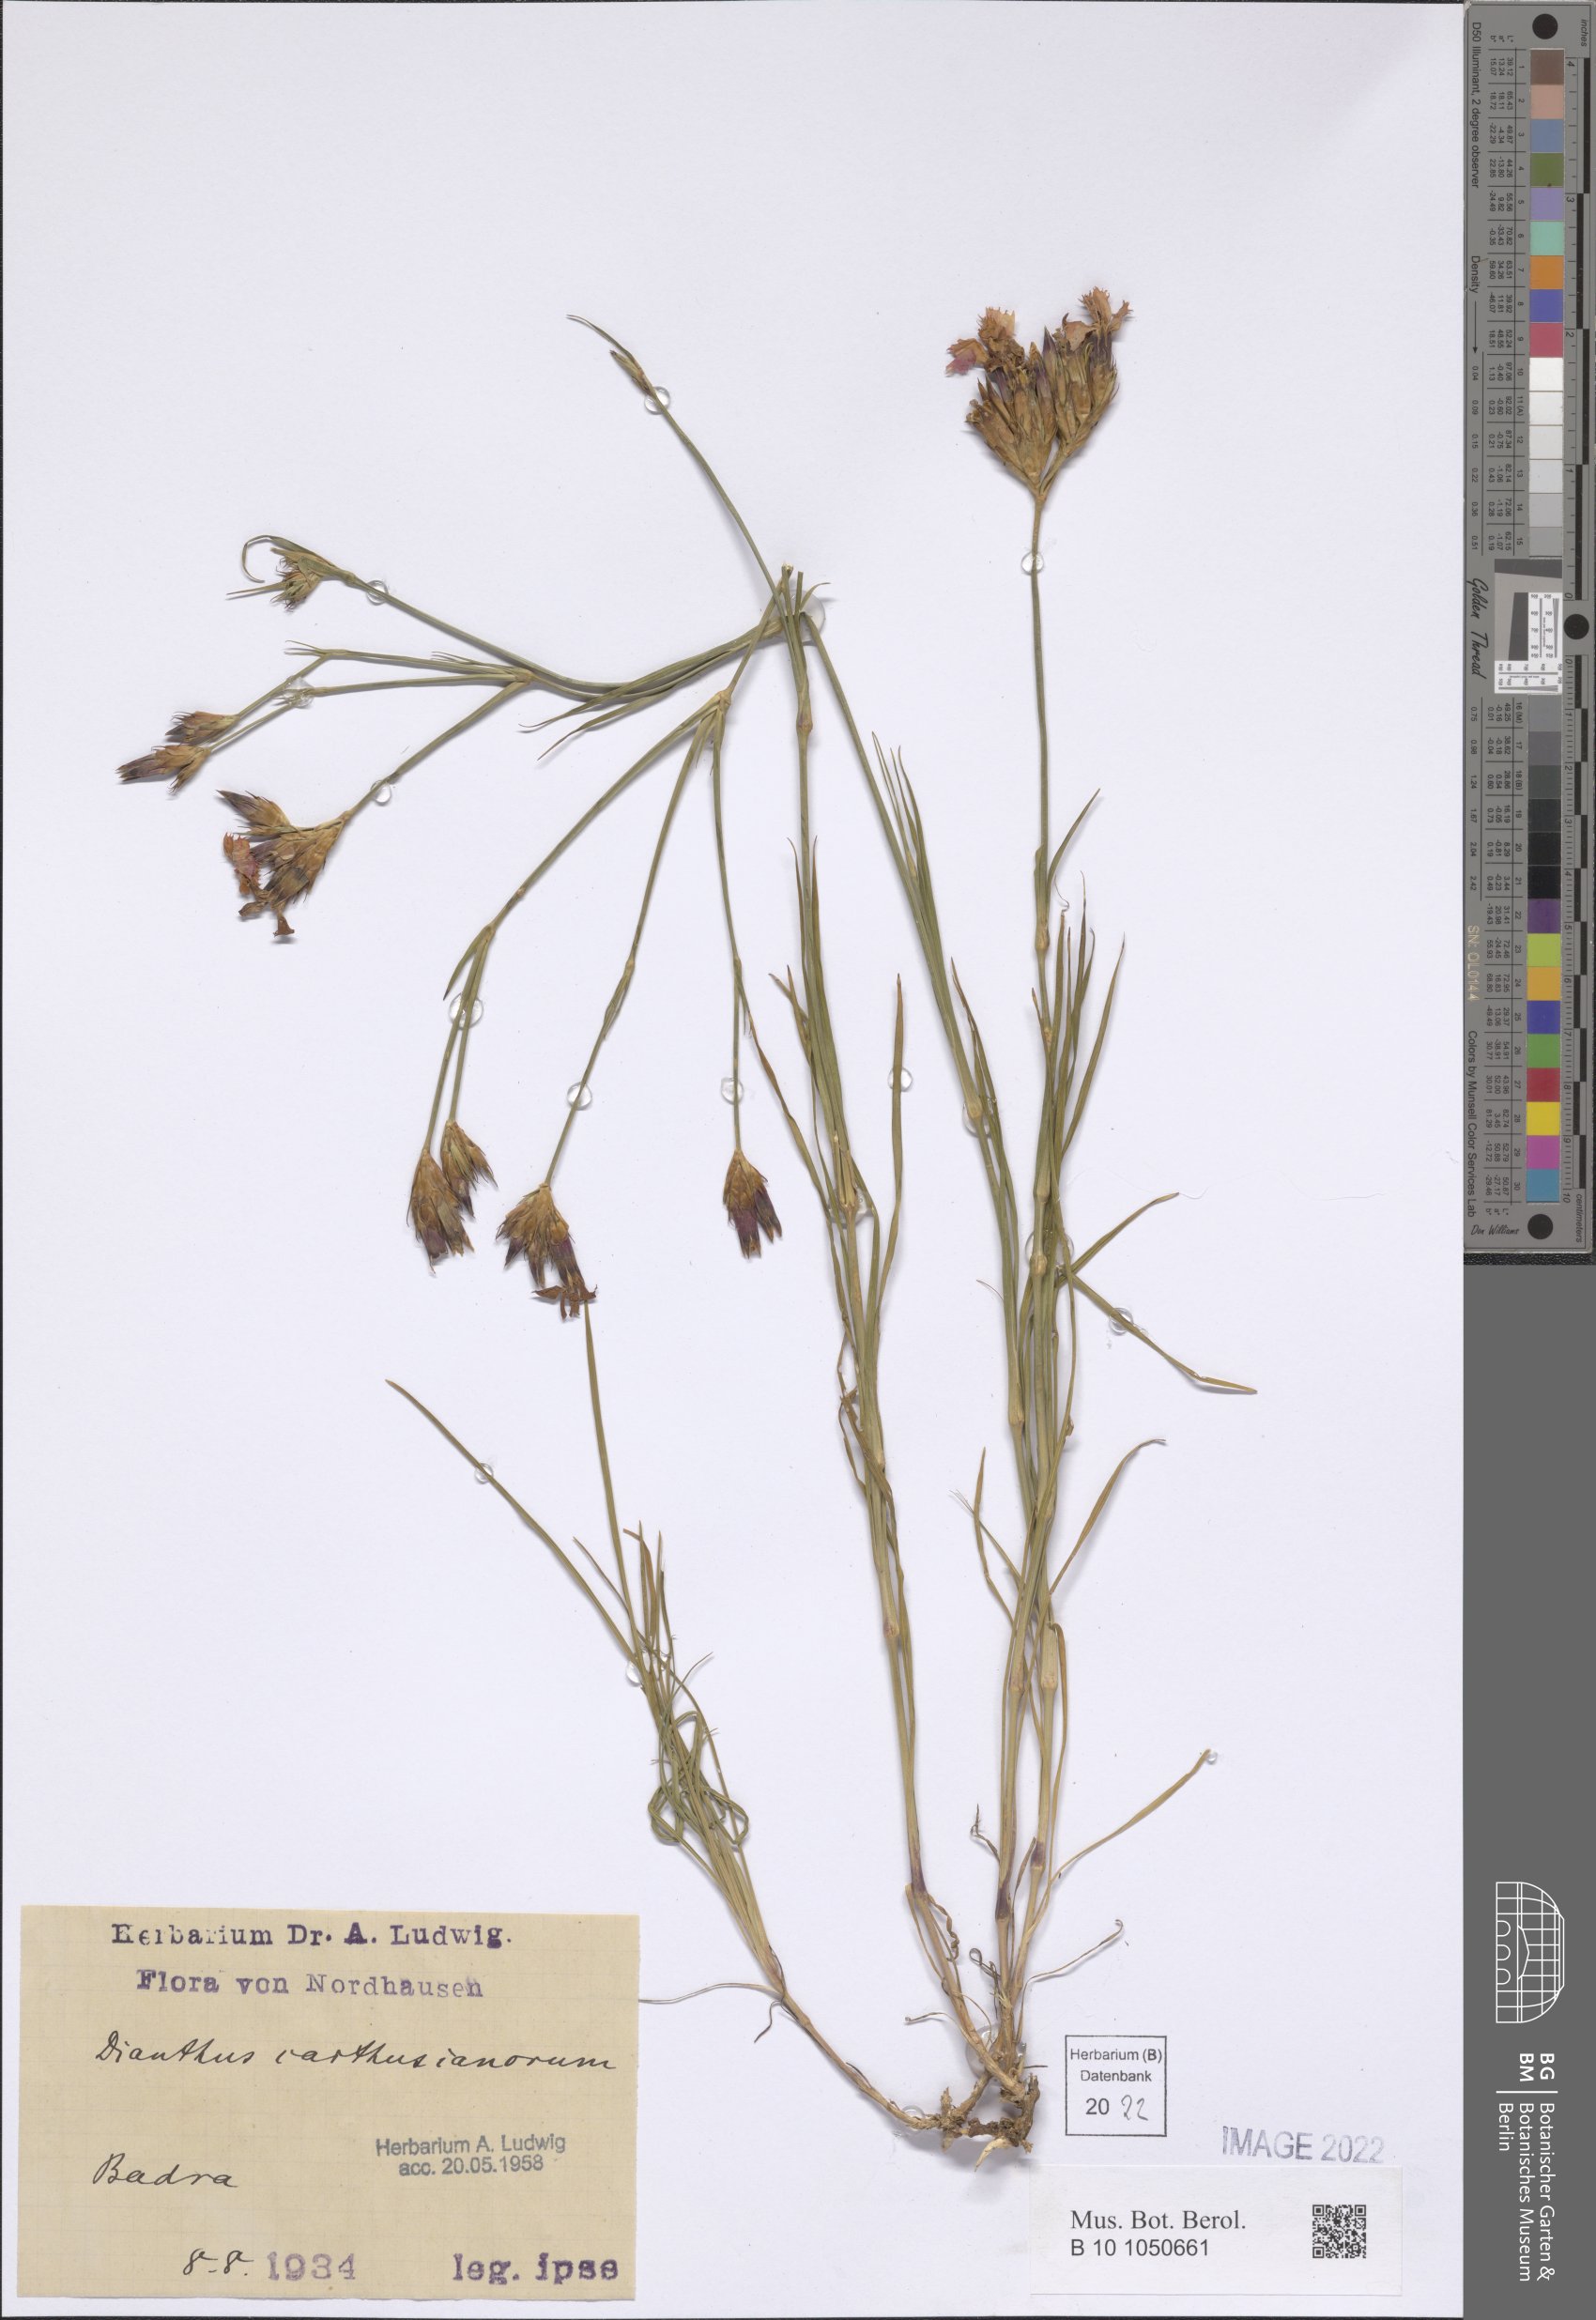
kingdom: Plantae
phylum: Tracheophyta
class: Magnoliopsida
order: Caryophyllales
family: Caryophyllaceae
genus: Dianthus
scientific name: Dianthus carthusianorum
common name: Carthusian pink
